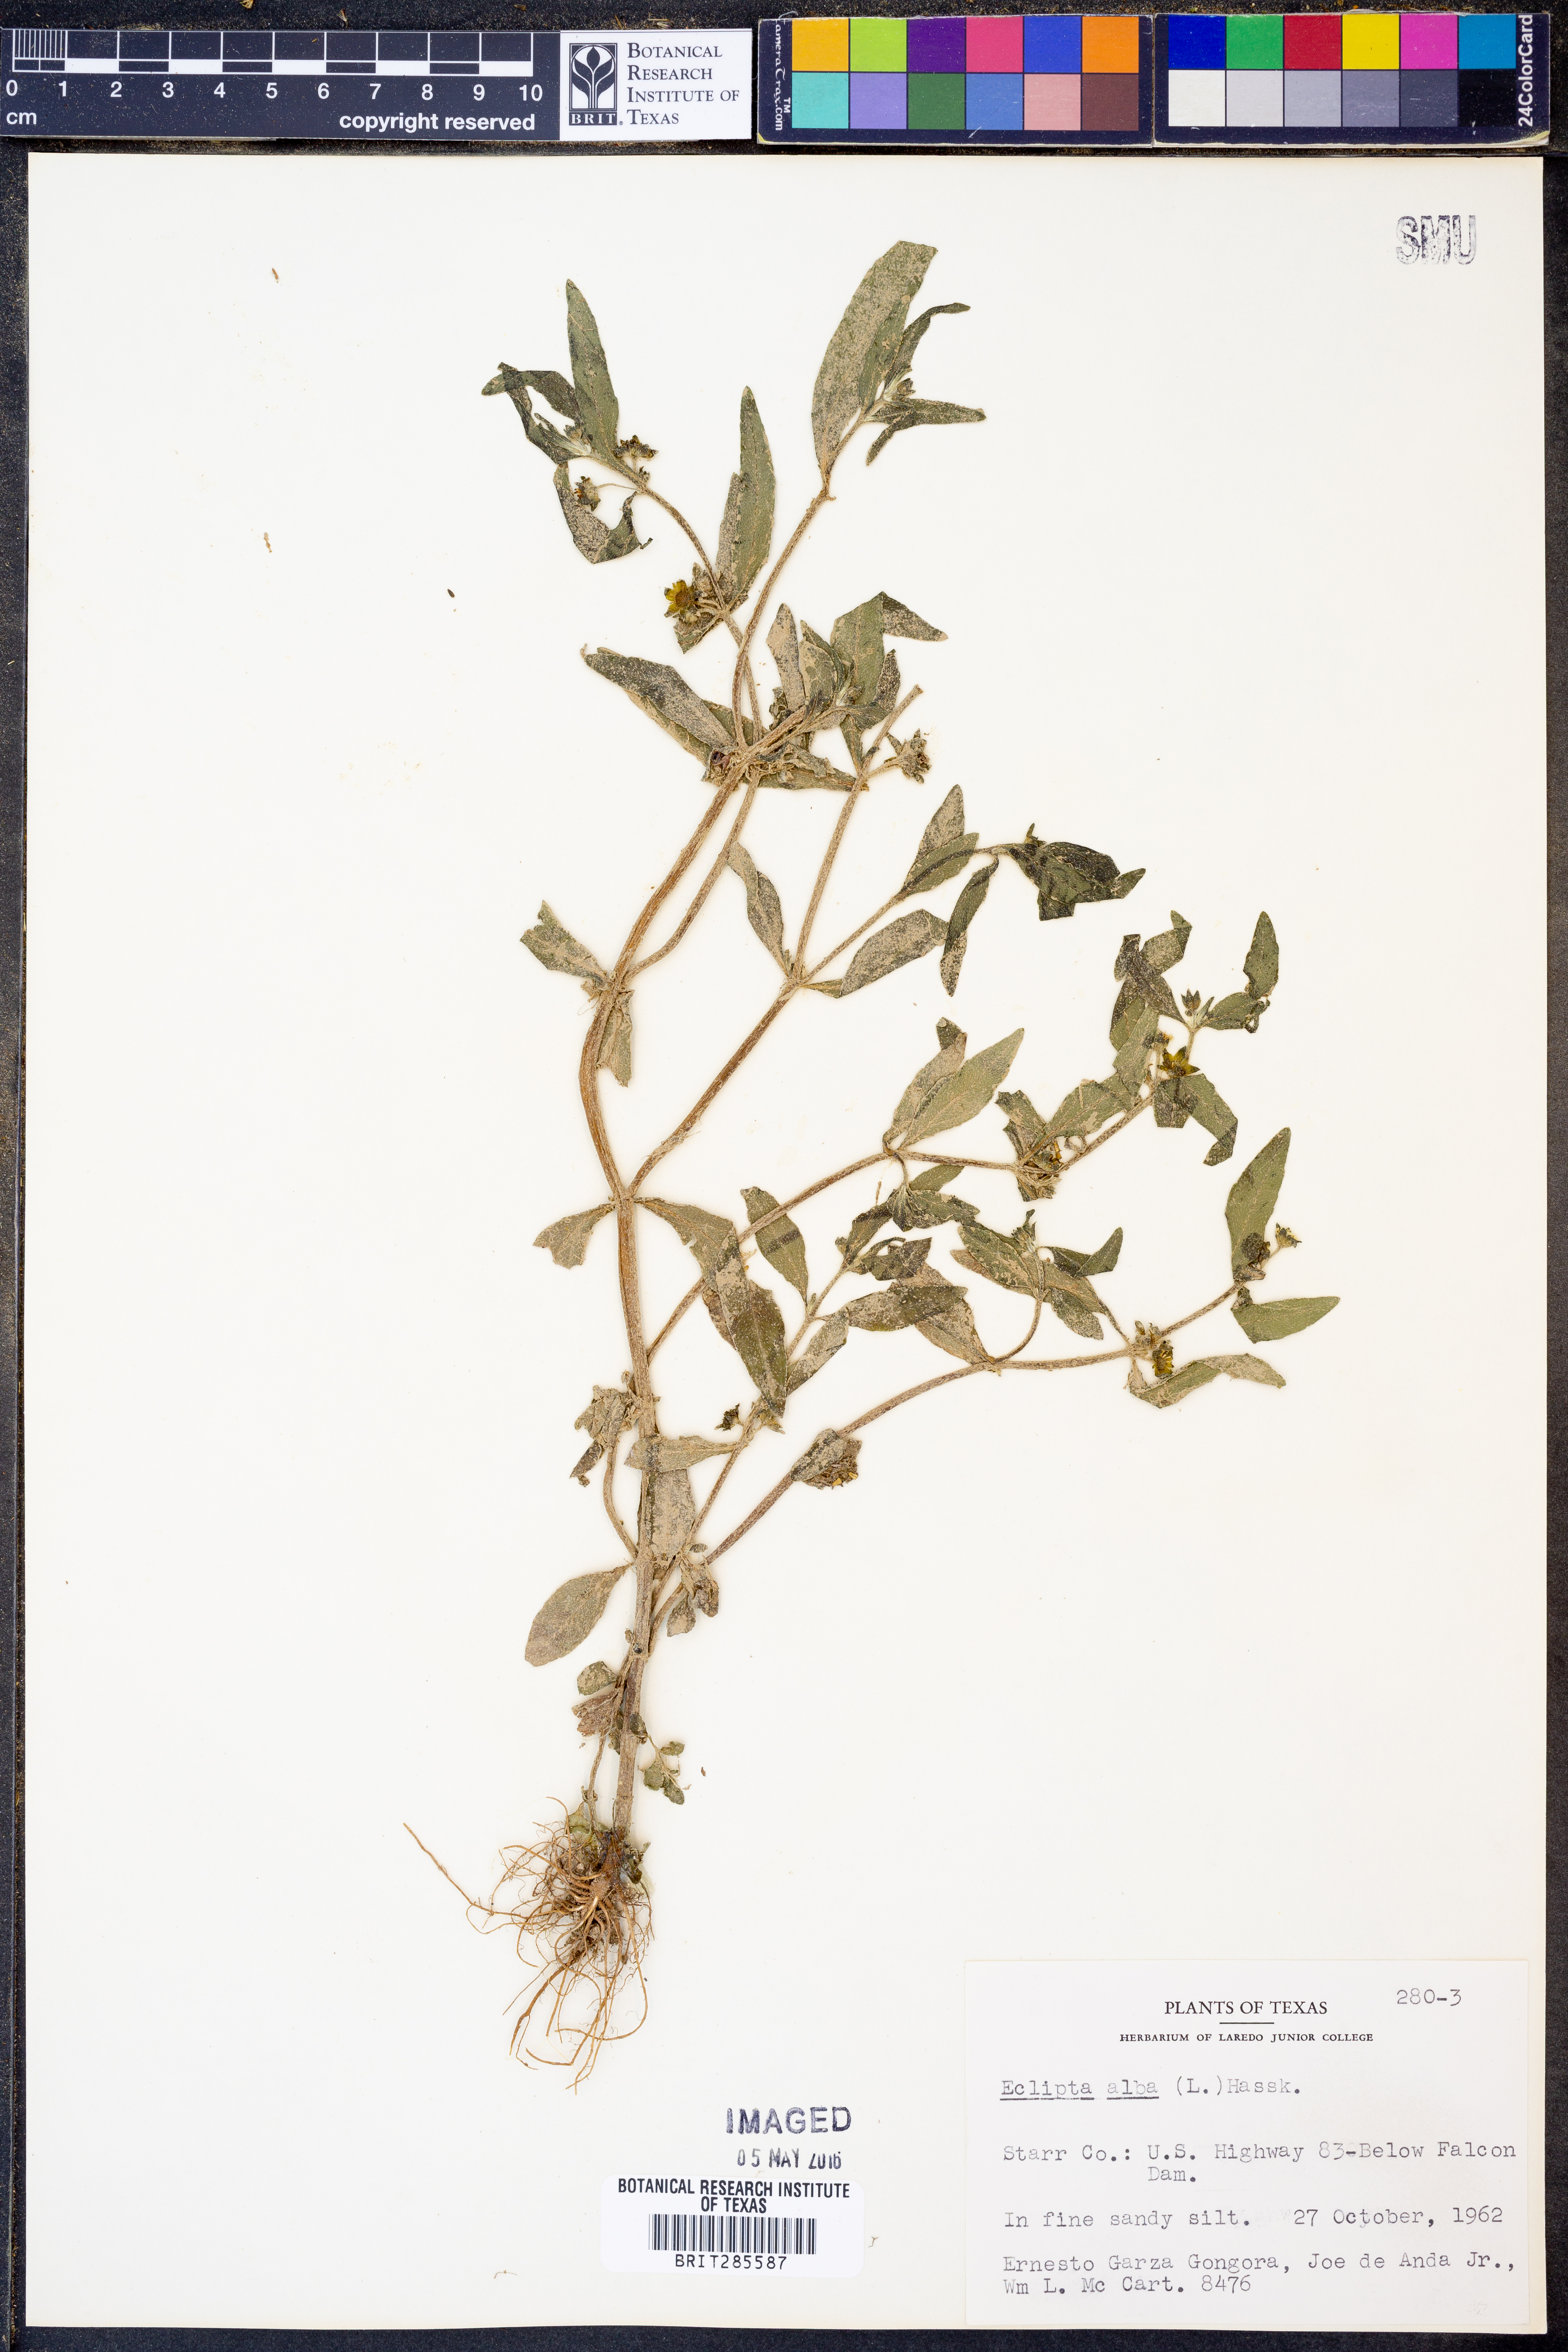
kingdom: Plantae
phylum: Tracheophyta
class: Magnoliopsida
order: Asterales
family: Asteraceae
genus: Eclipta
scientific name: Eclipta alba
